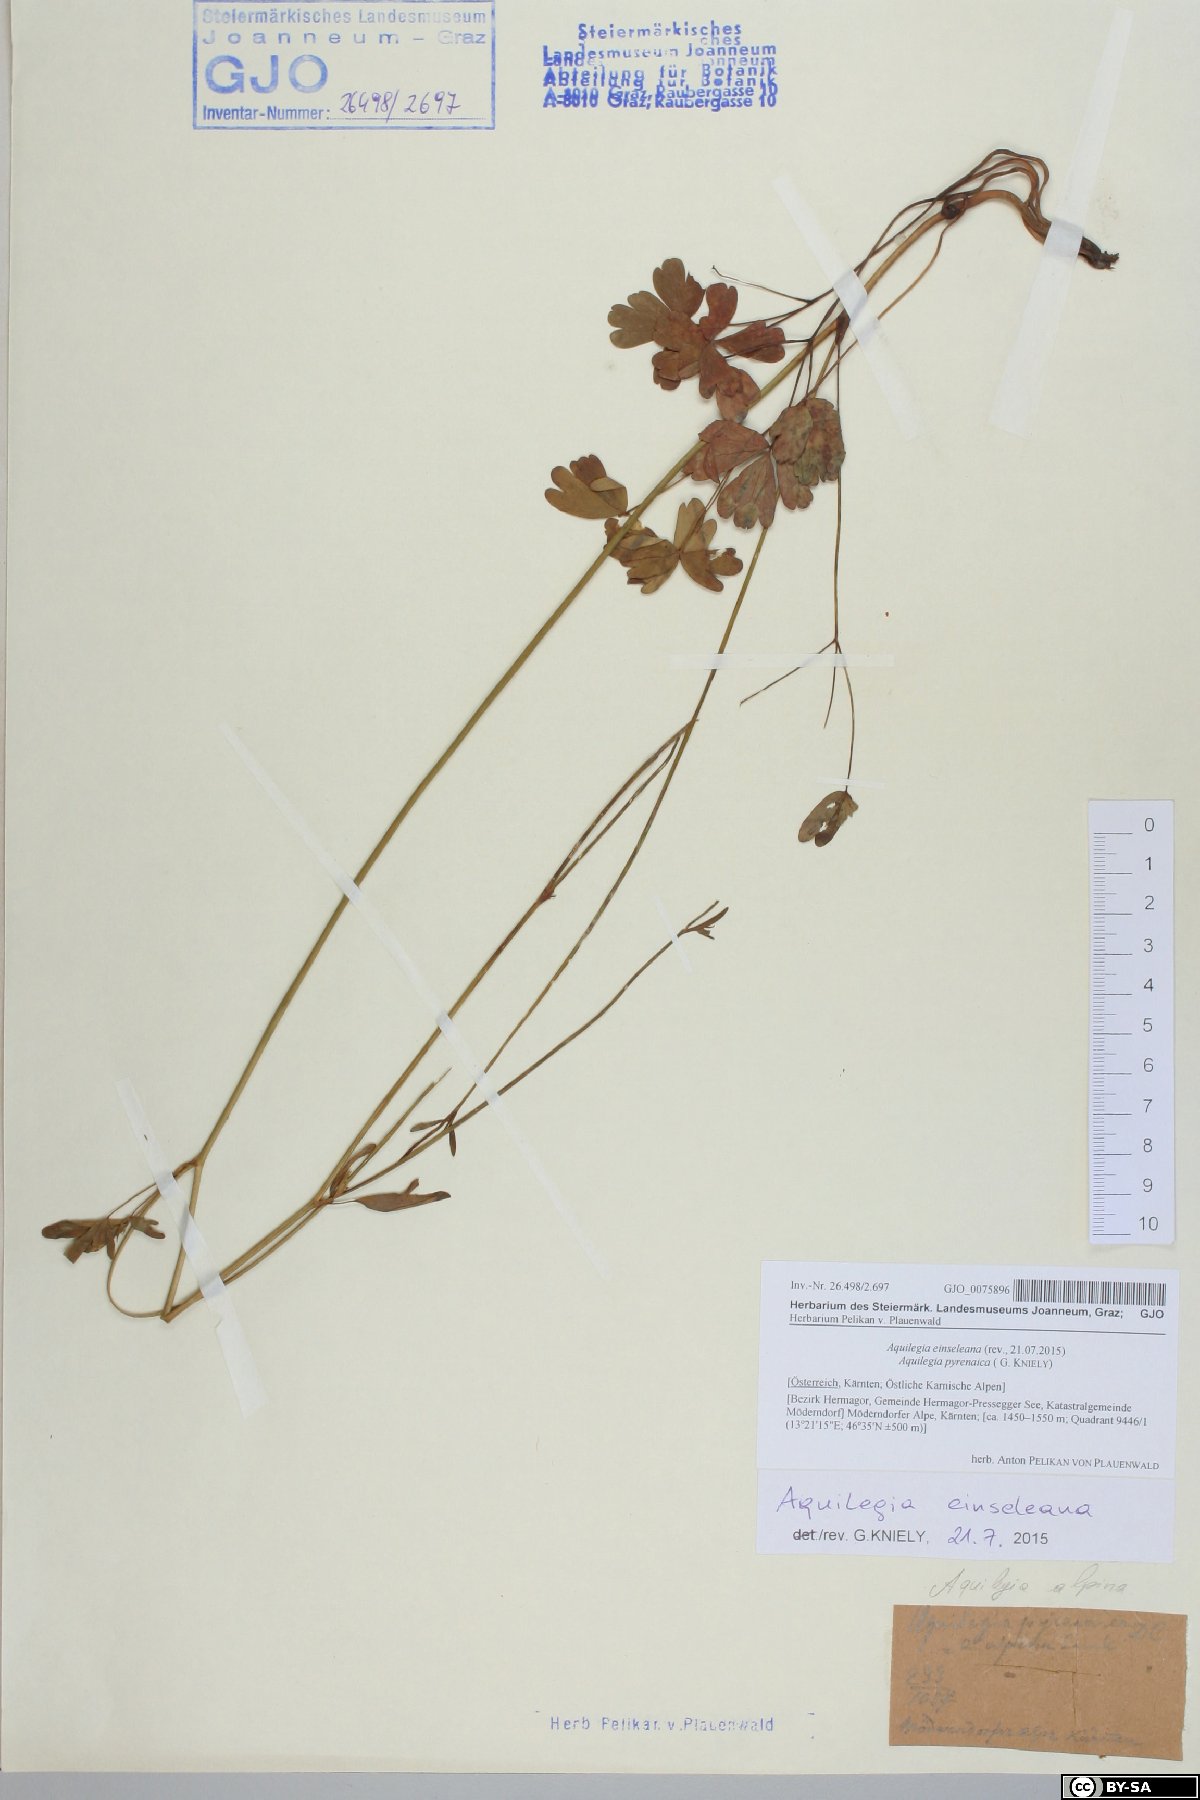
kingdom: Plantae
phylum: Tracheophyta
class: Magnoliopsida
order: Ranunculales
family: Ranunculaceae
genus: Aquilegia
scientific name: Aquilegia einseleana
